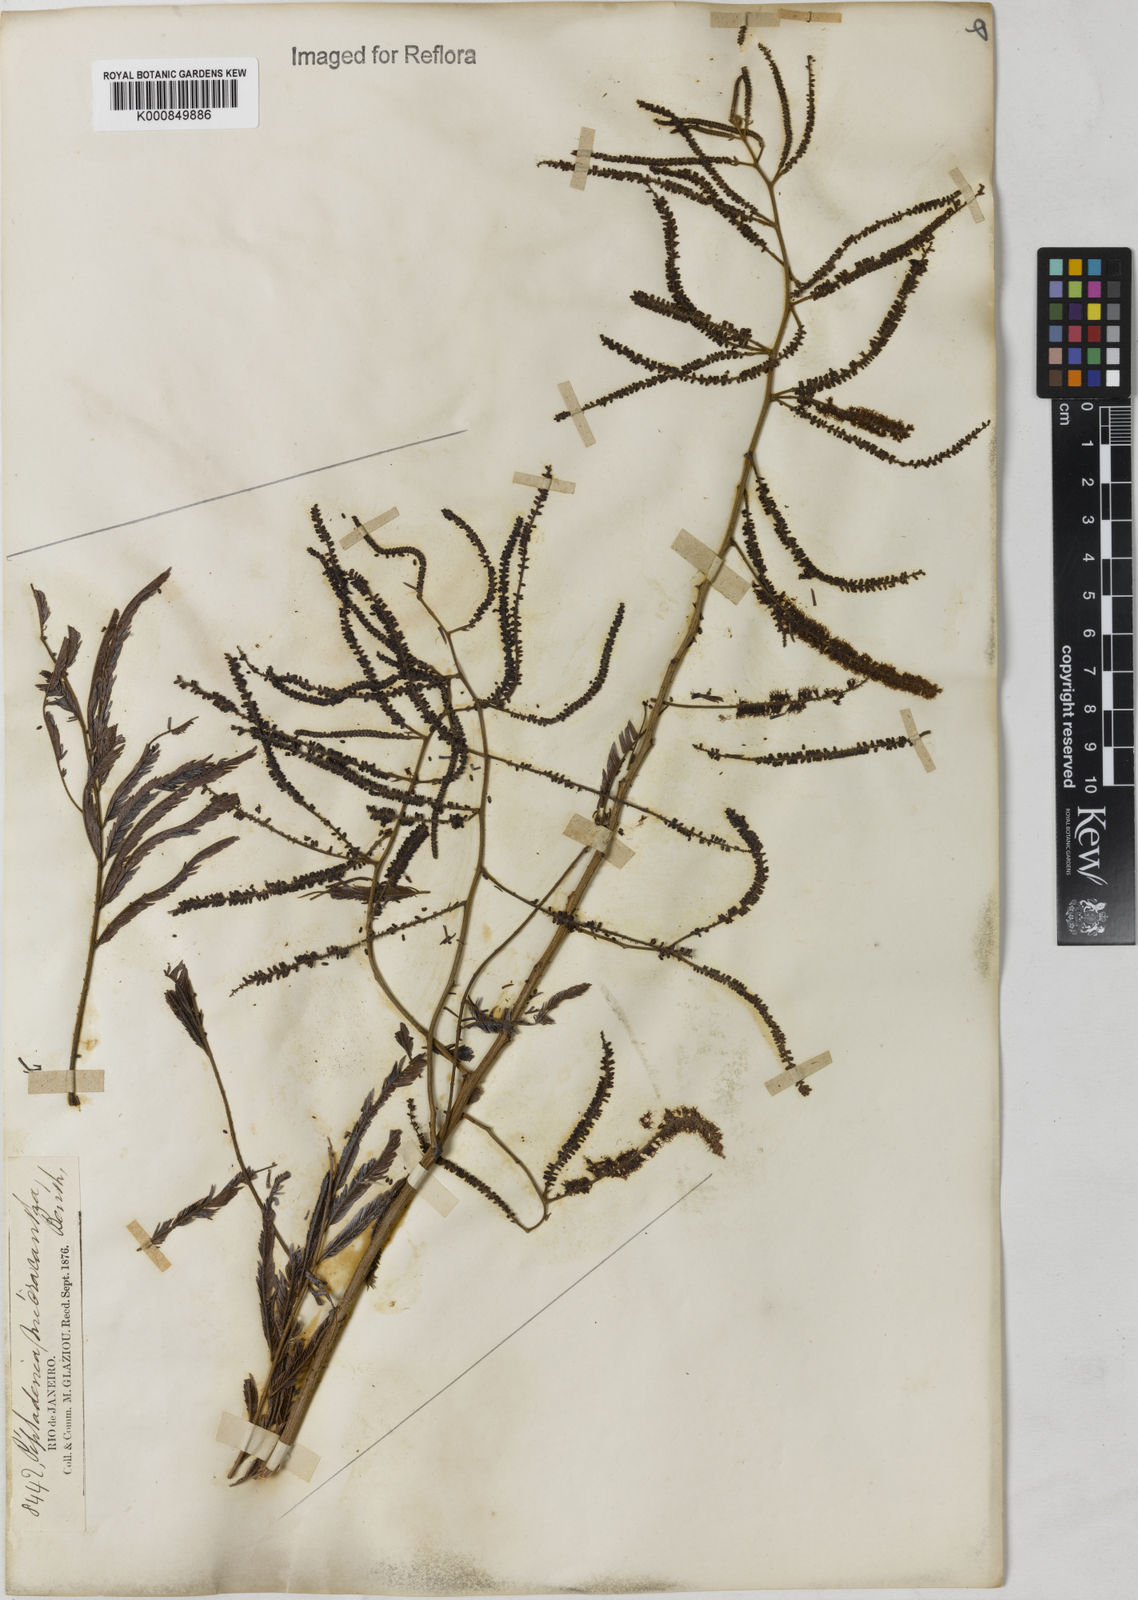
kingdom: Plantae
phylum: Tracheophyta
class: Magnoliopsida
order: Fabales
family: Fabaceae
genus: Piptadenia
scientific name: Piptadenia micracantha
